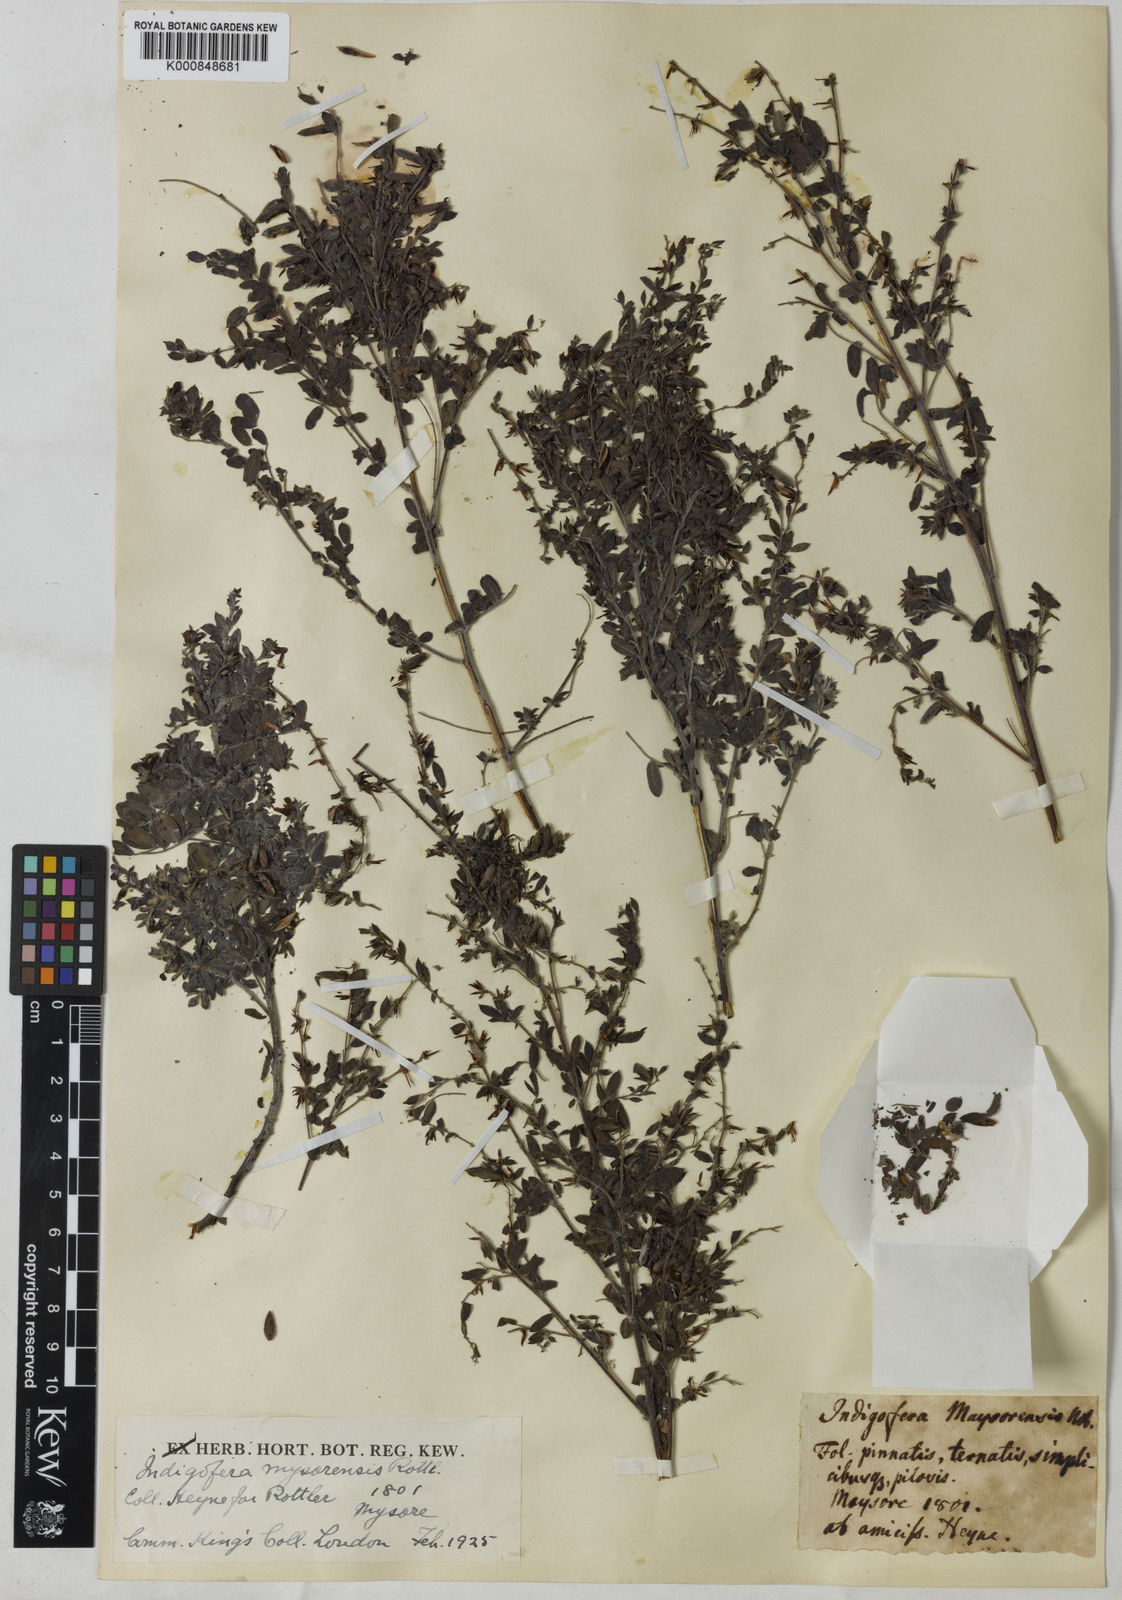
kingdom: Plantae
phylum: Tracheophyta
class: Magnoliopsida
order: Fabales
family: Fabaceae
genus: Indigofera
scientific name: Indigofera mysorensis
